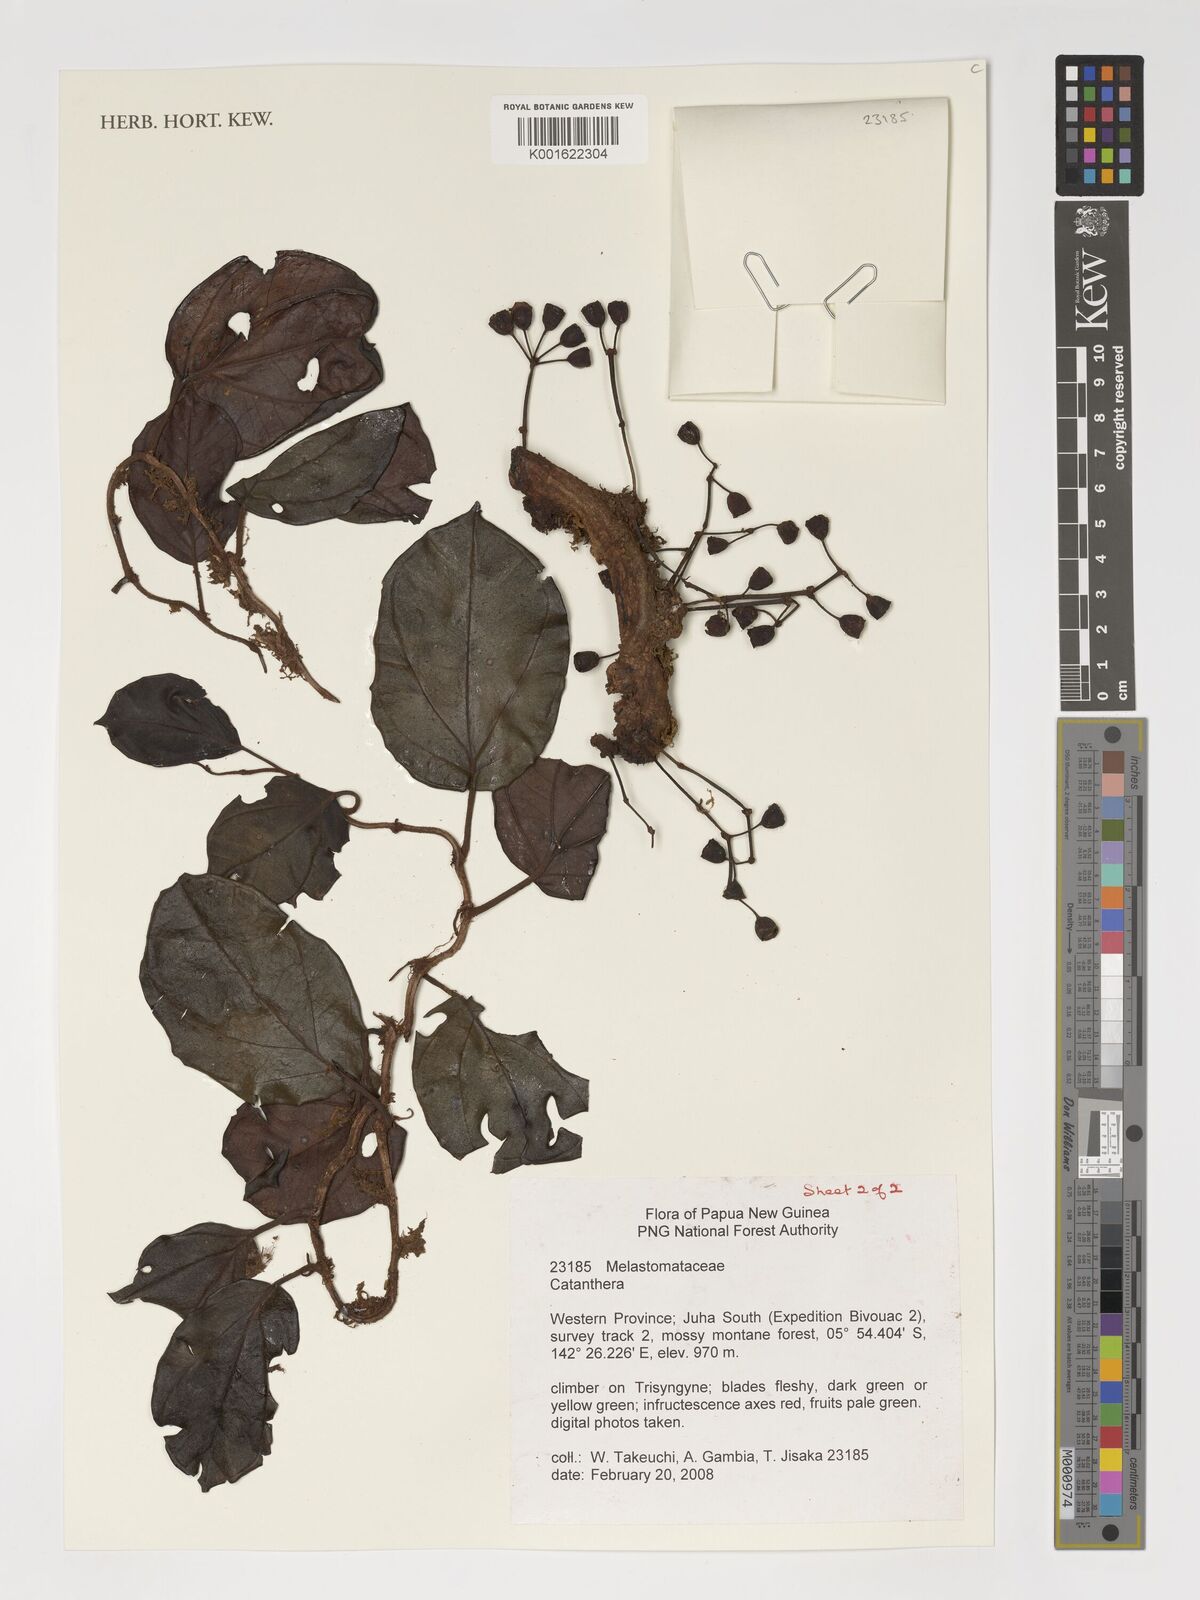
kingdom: Plantae
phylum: Tracheophyta
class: Magnoliopsida
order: Myrtales
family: Melastomataceae
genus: Catanthera
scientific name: Catanthera
